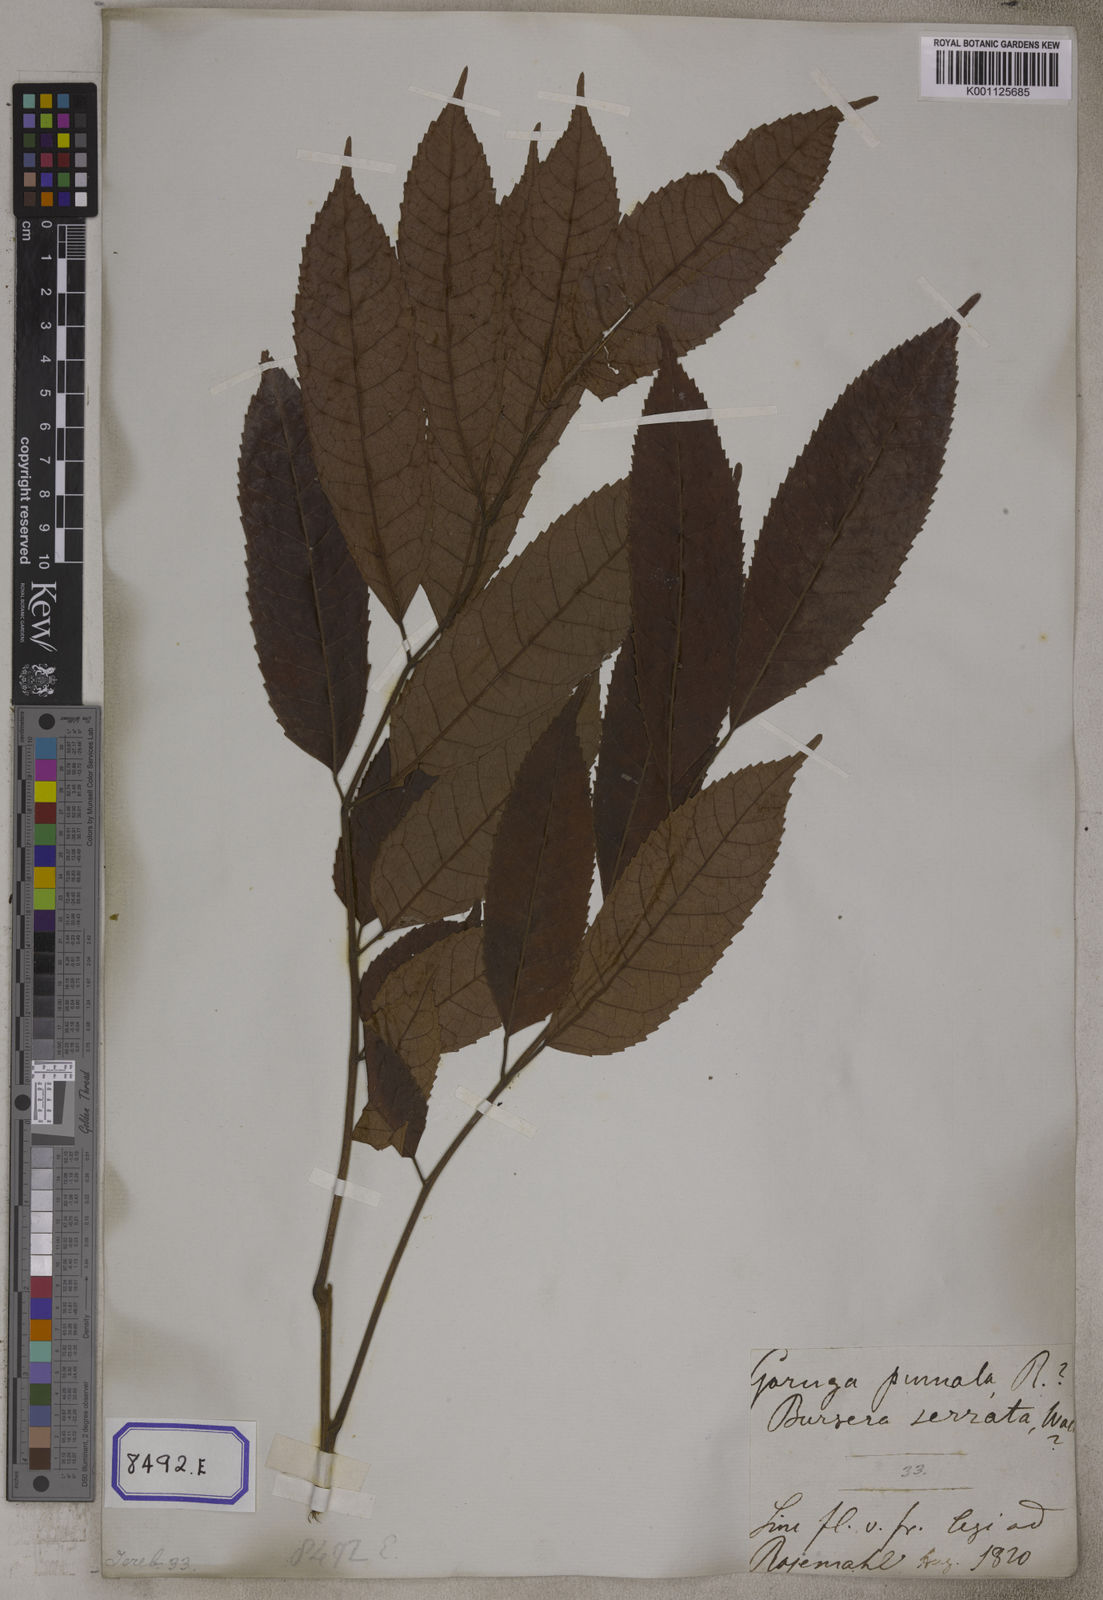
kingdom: Plantae
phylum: Tracheophyta
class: Magnoliopsida
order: Sapindales
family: Burseraceae
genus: Protium
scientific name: Protium serratum
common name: Murtenga
